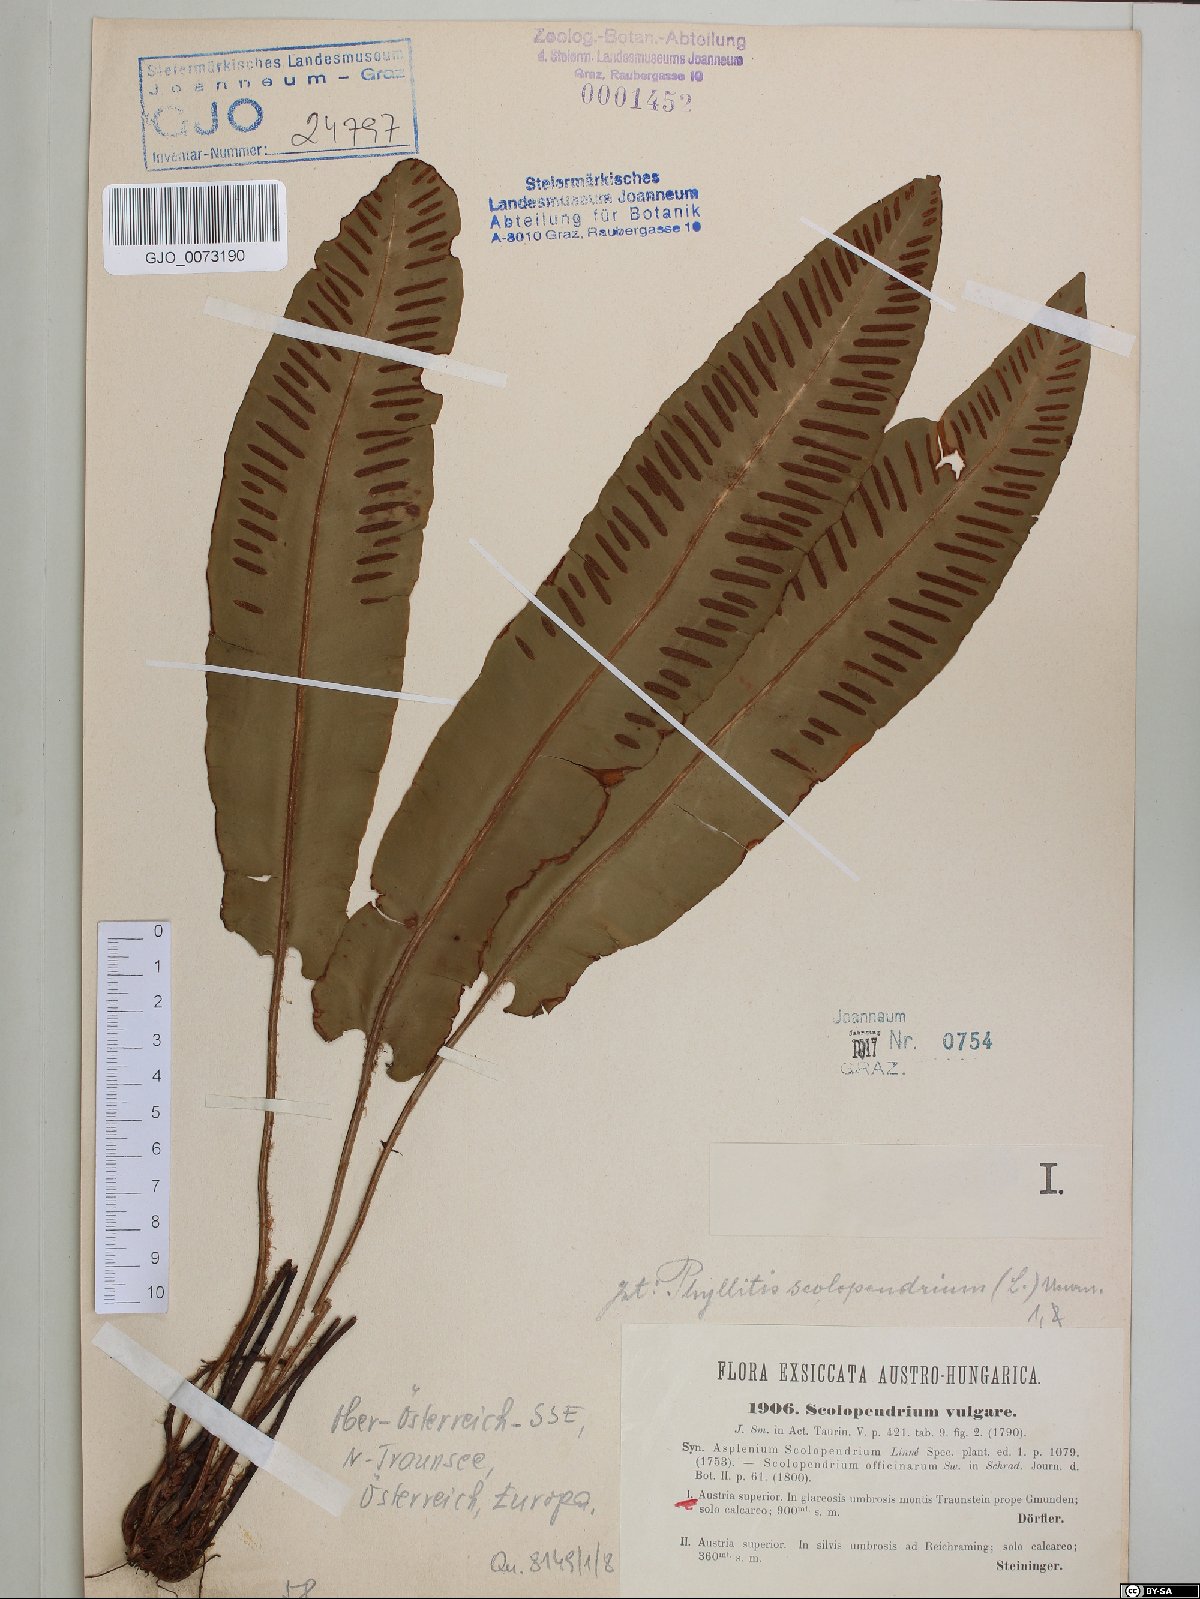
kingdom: Plantae
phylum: Tracheophyta
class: Polypodiopsida
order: Polypodiales
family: Aspleniaceae
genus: Asplenium
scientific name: Asplenium scolopendrium
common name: Hart's-tongue fern
